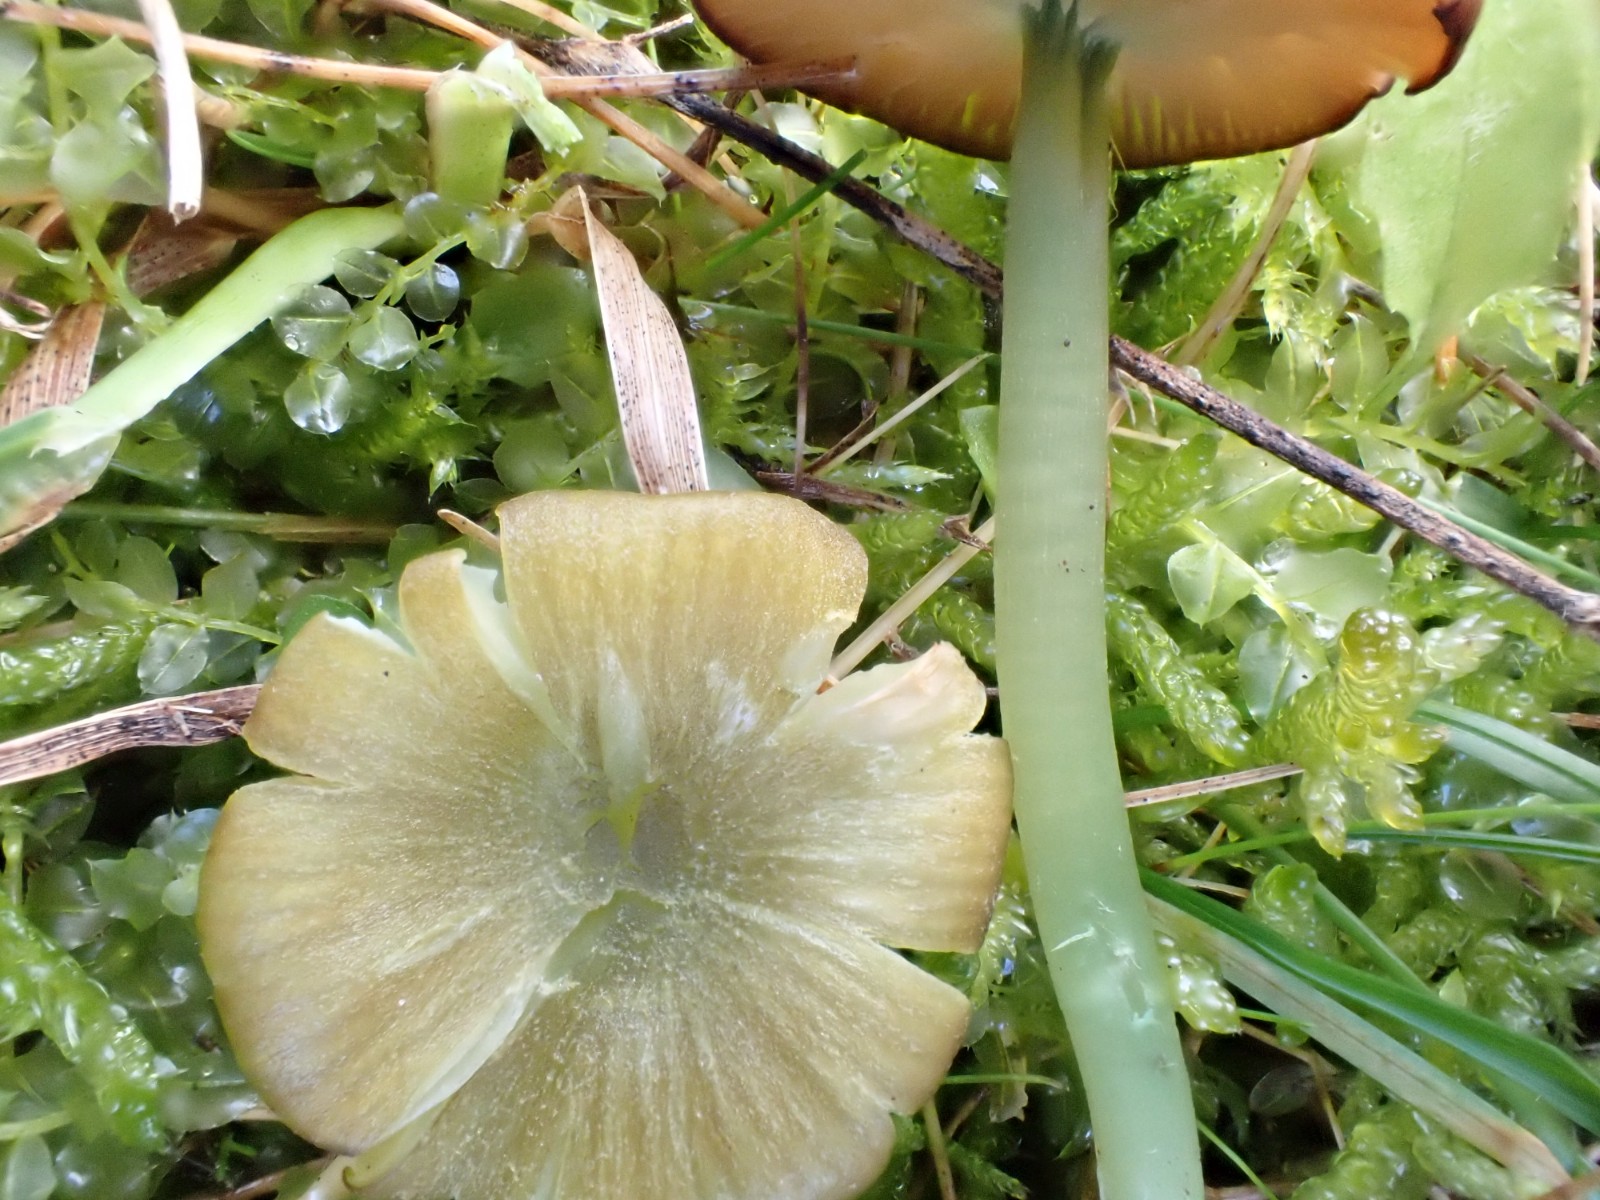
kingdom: Fungi
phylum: Basidiomycota
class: Agaricomycetes
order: Agaricales
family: Entolomataceae
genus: Entoloma
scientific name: Entoloma incanum
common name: grøngul rødblad
